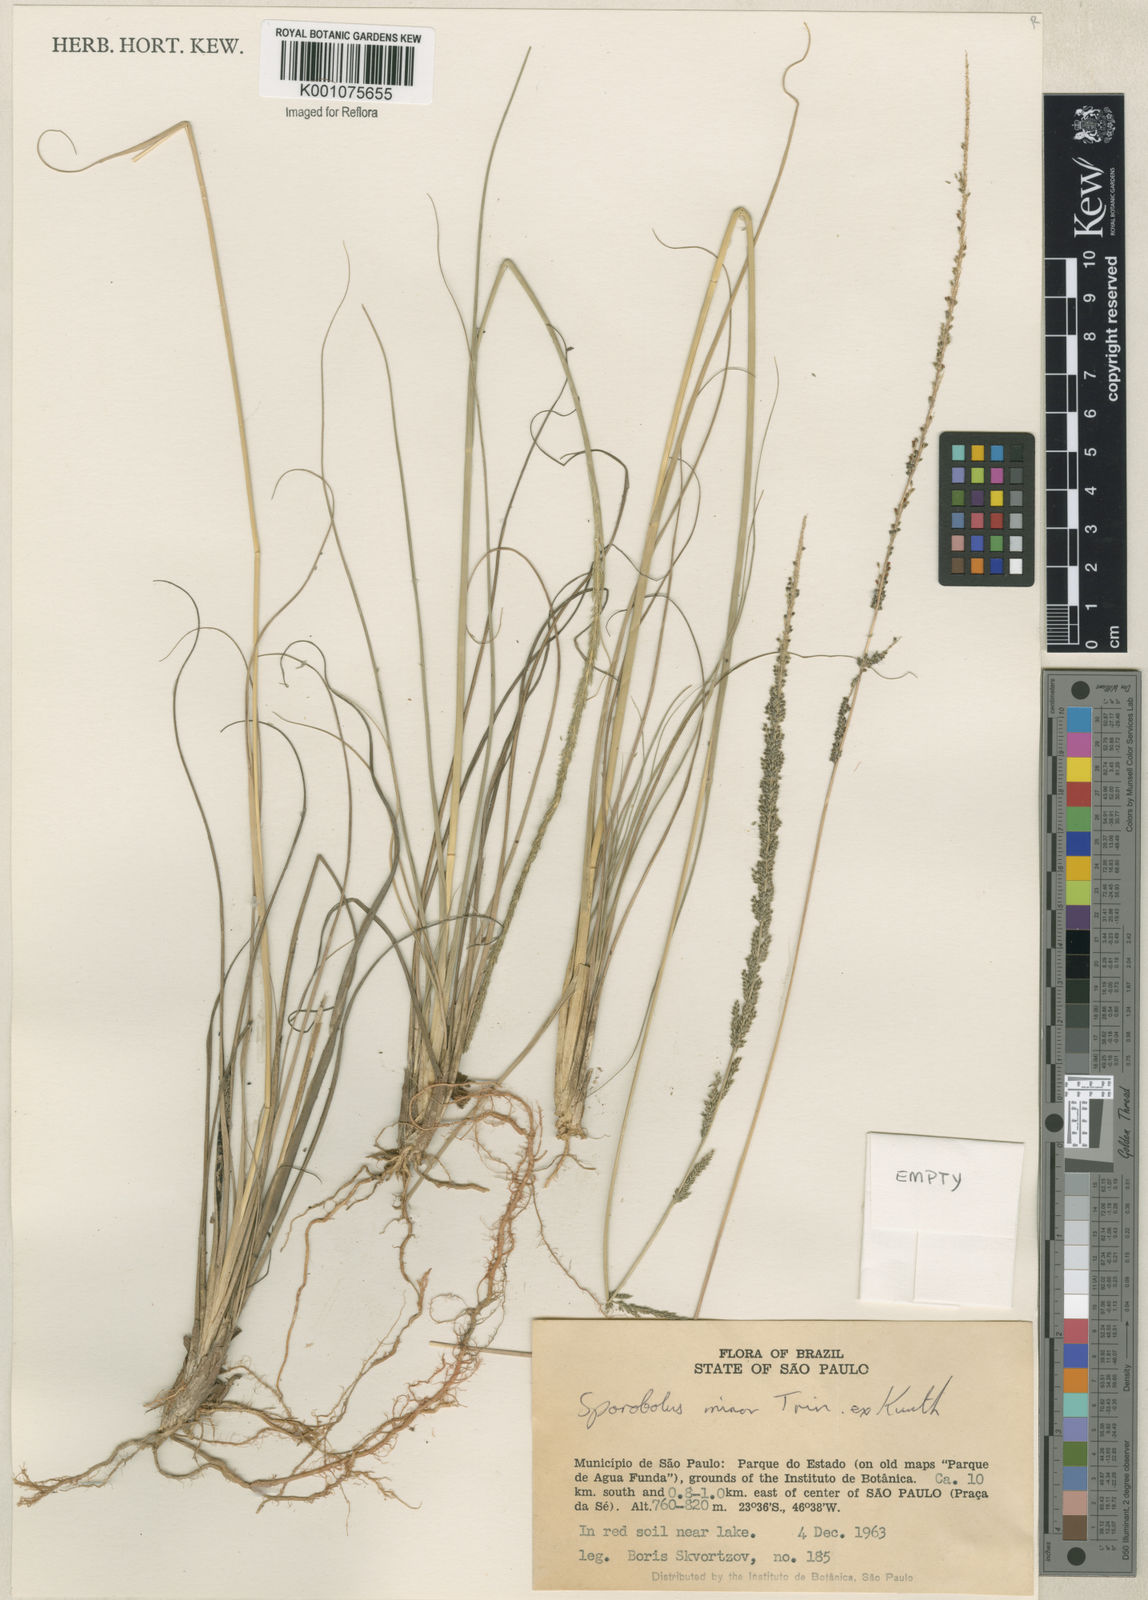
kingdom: Plantae
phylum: Tracheophyta
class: Liliopsida
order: Poales
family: Poaceae
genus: Sporobolus
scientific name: Sporobolus indicus
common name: Smut grass
